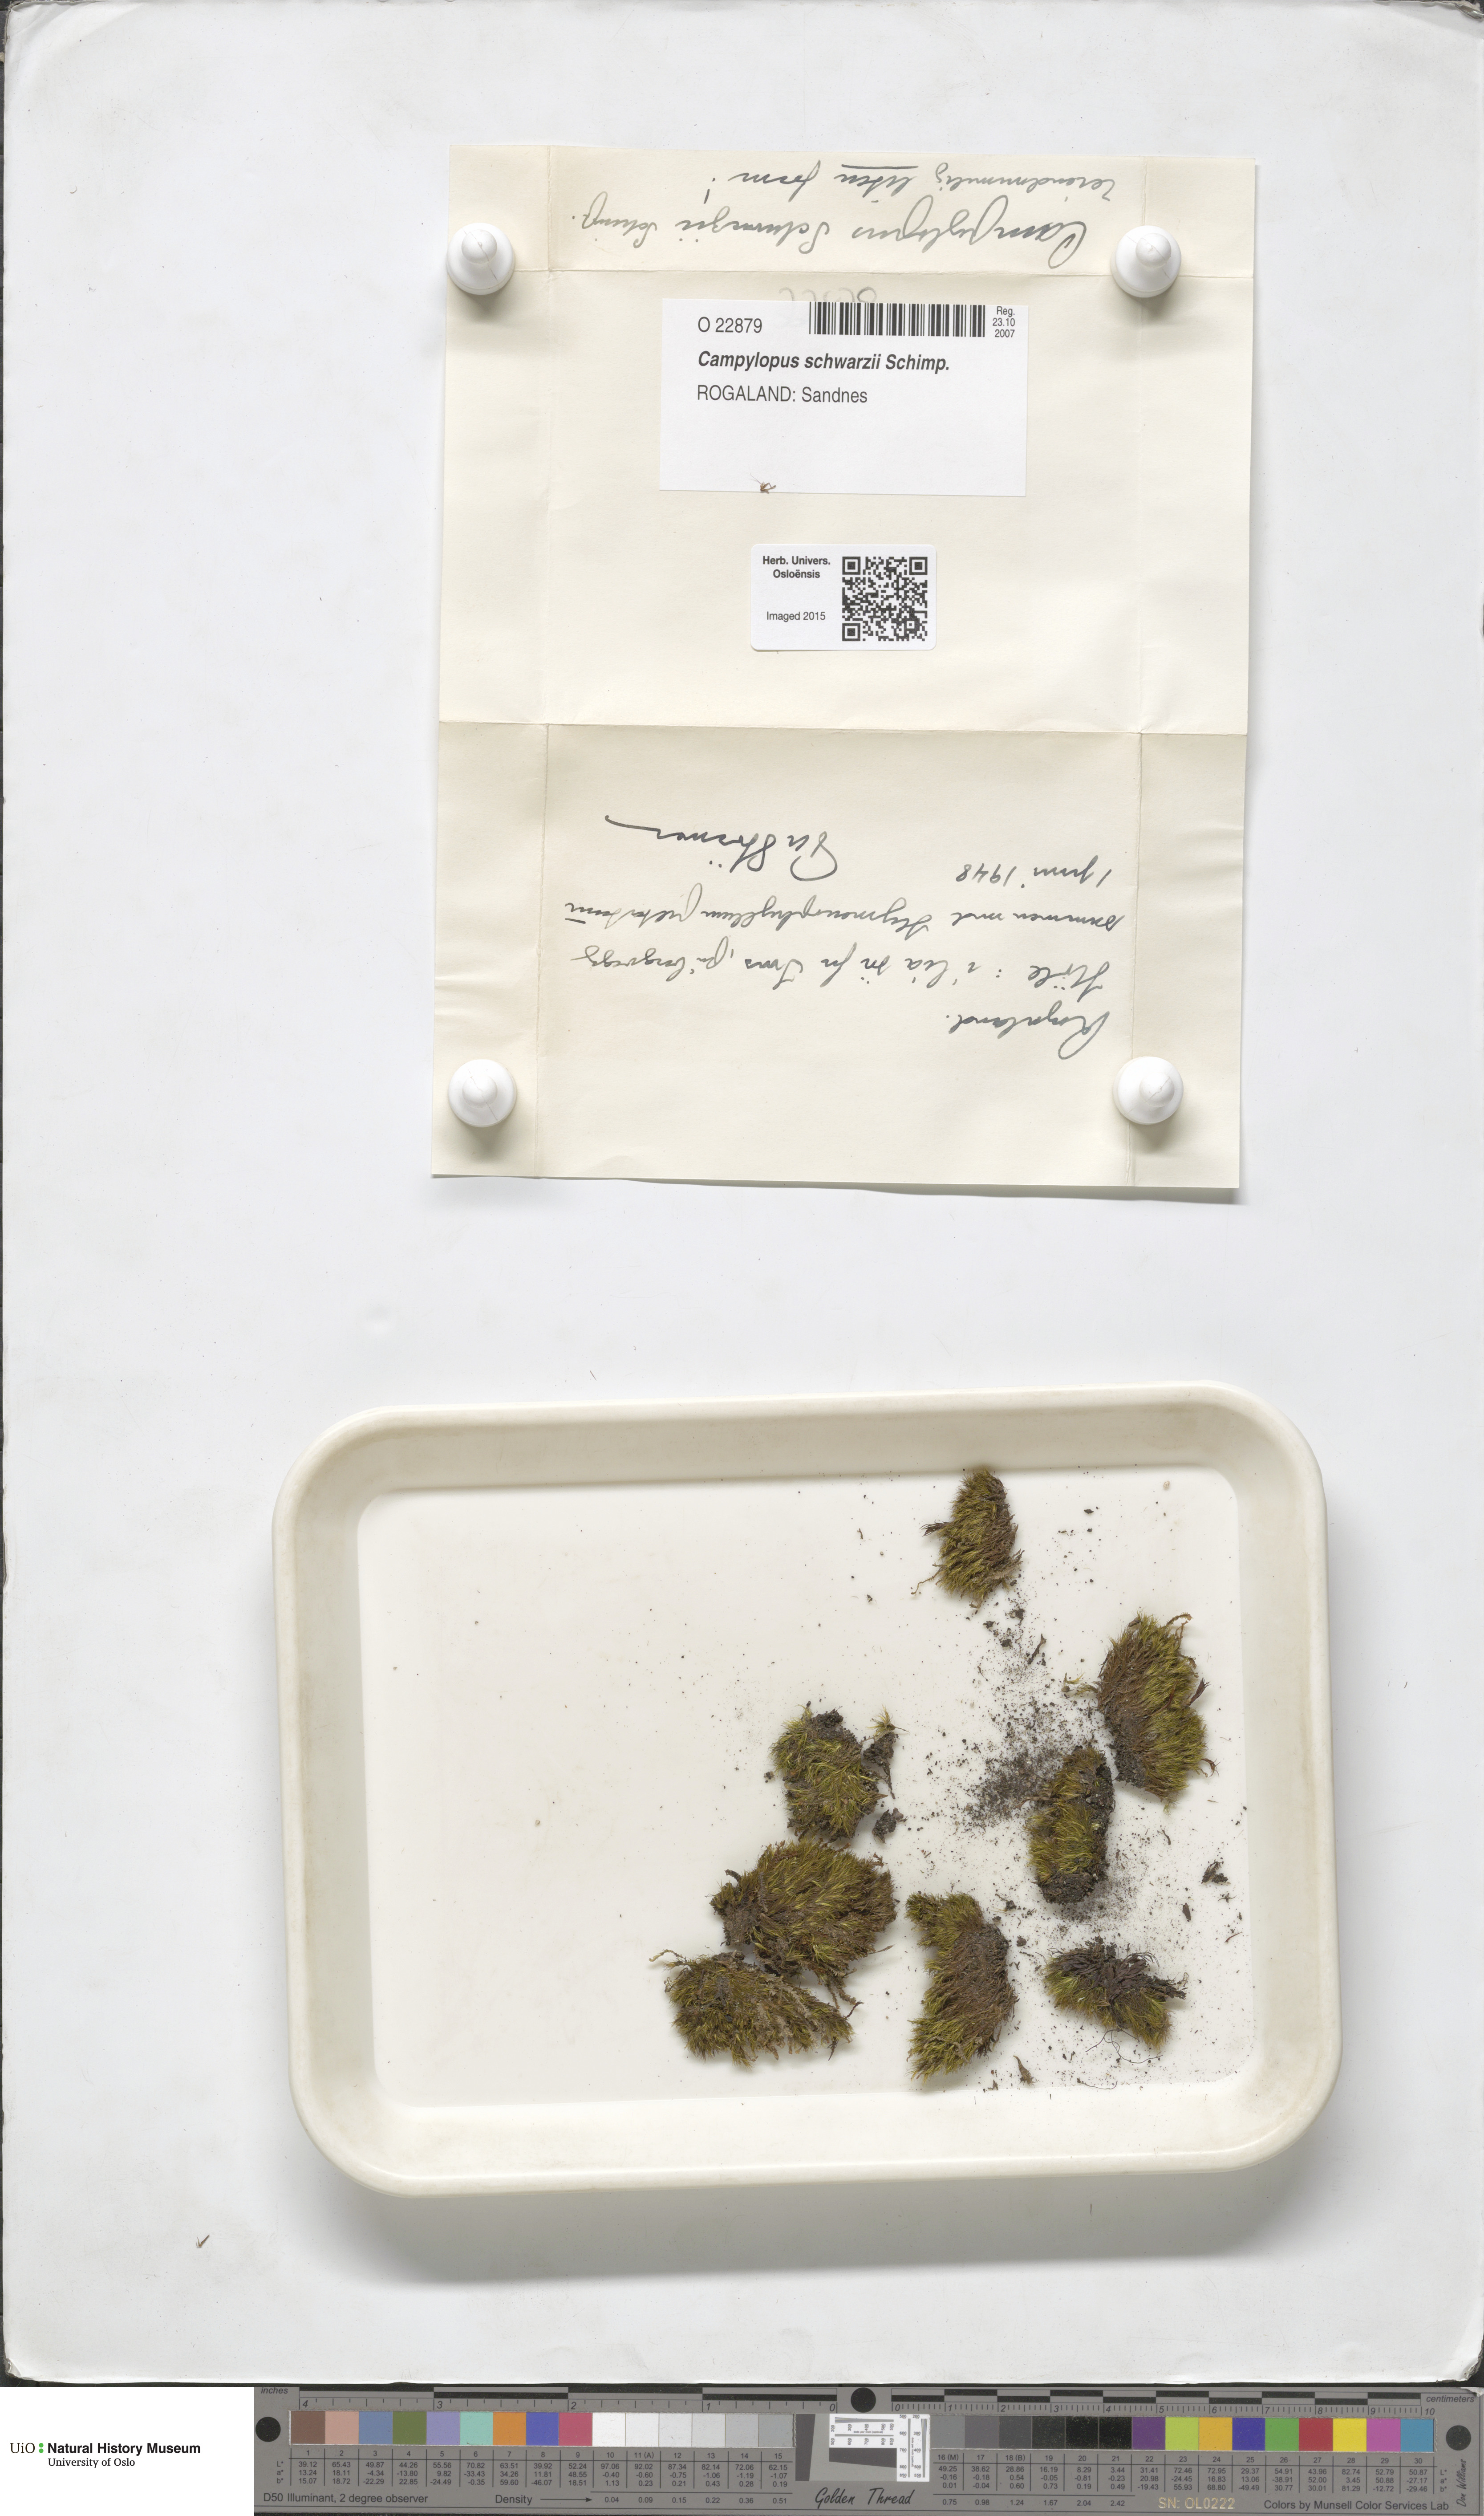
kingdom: Plantae
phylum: Bryophyta
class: Bryopsida
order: Dicranales
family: Leucobryaceae
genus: Campylopus
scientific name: Campylopus gracilis
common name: Schwarz's swan-neck moss
